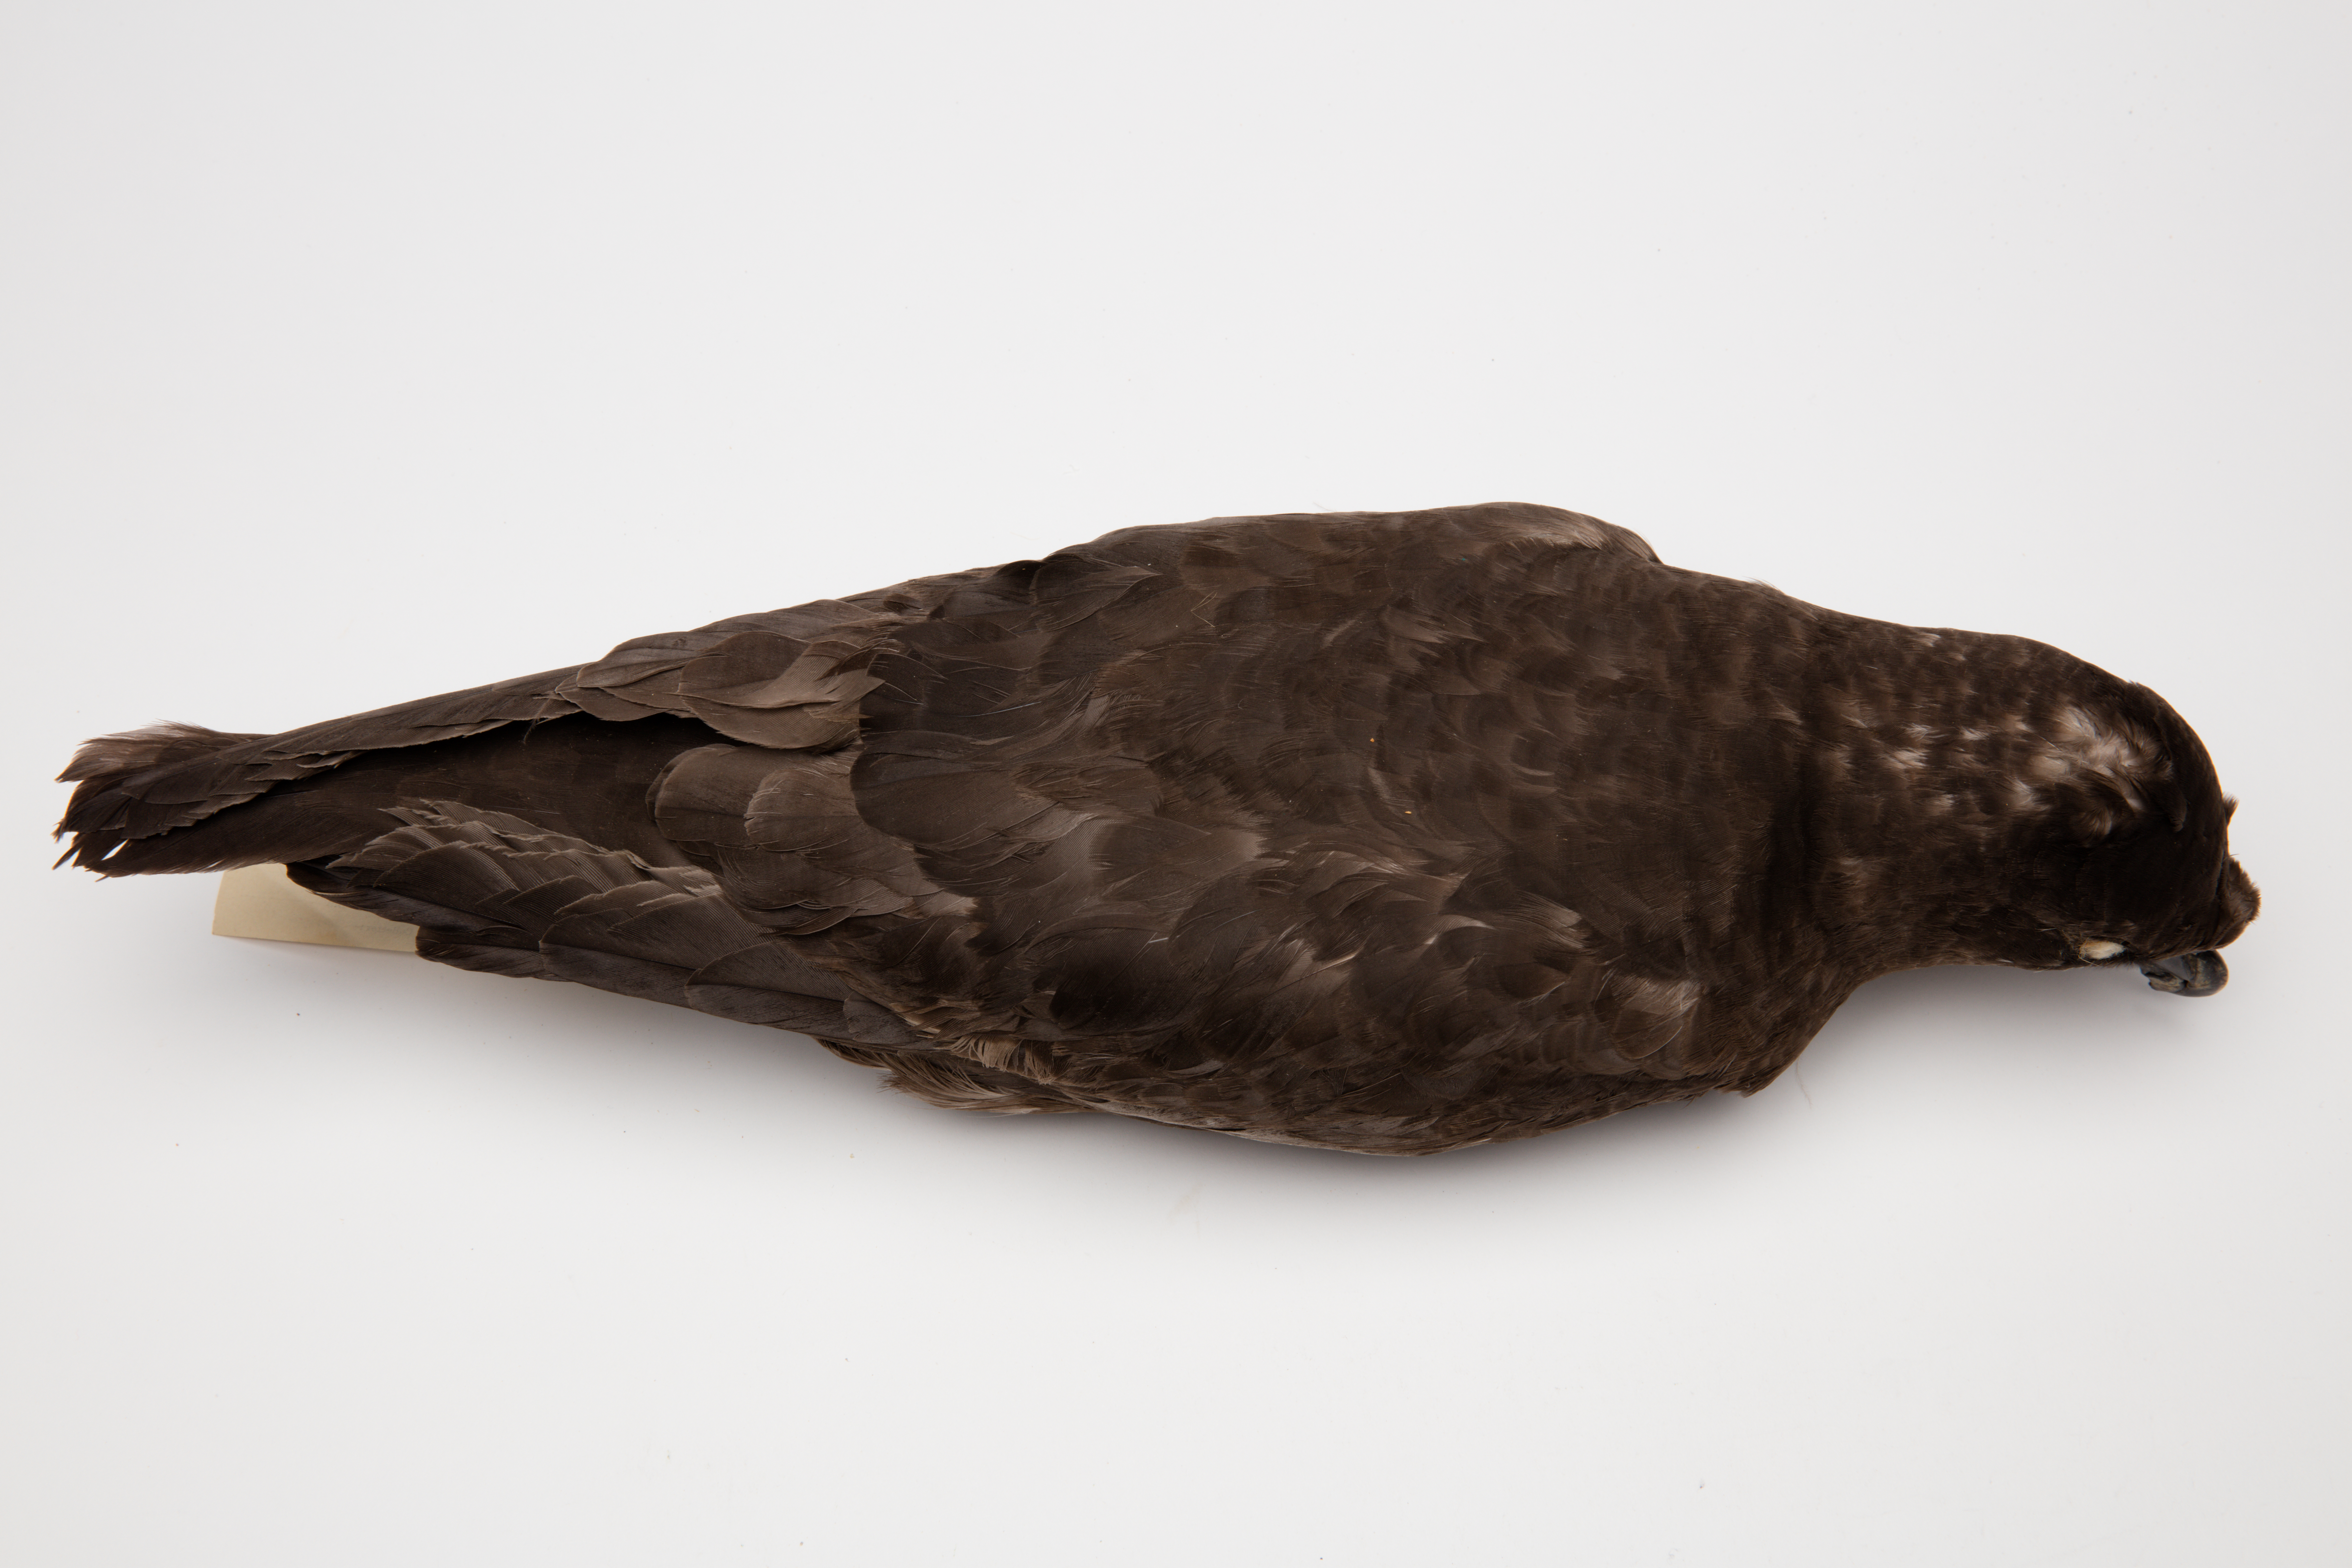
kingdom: Animalia
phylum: Chordata
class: Aves
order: Procellariiformes
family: Procellariidae
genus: Pterodroma
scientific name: Pterodroma macroptera
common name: Great-winged petrel
